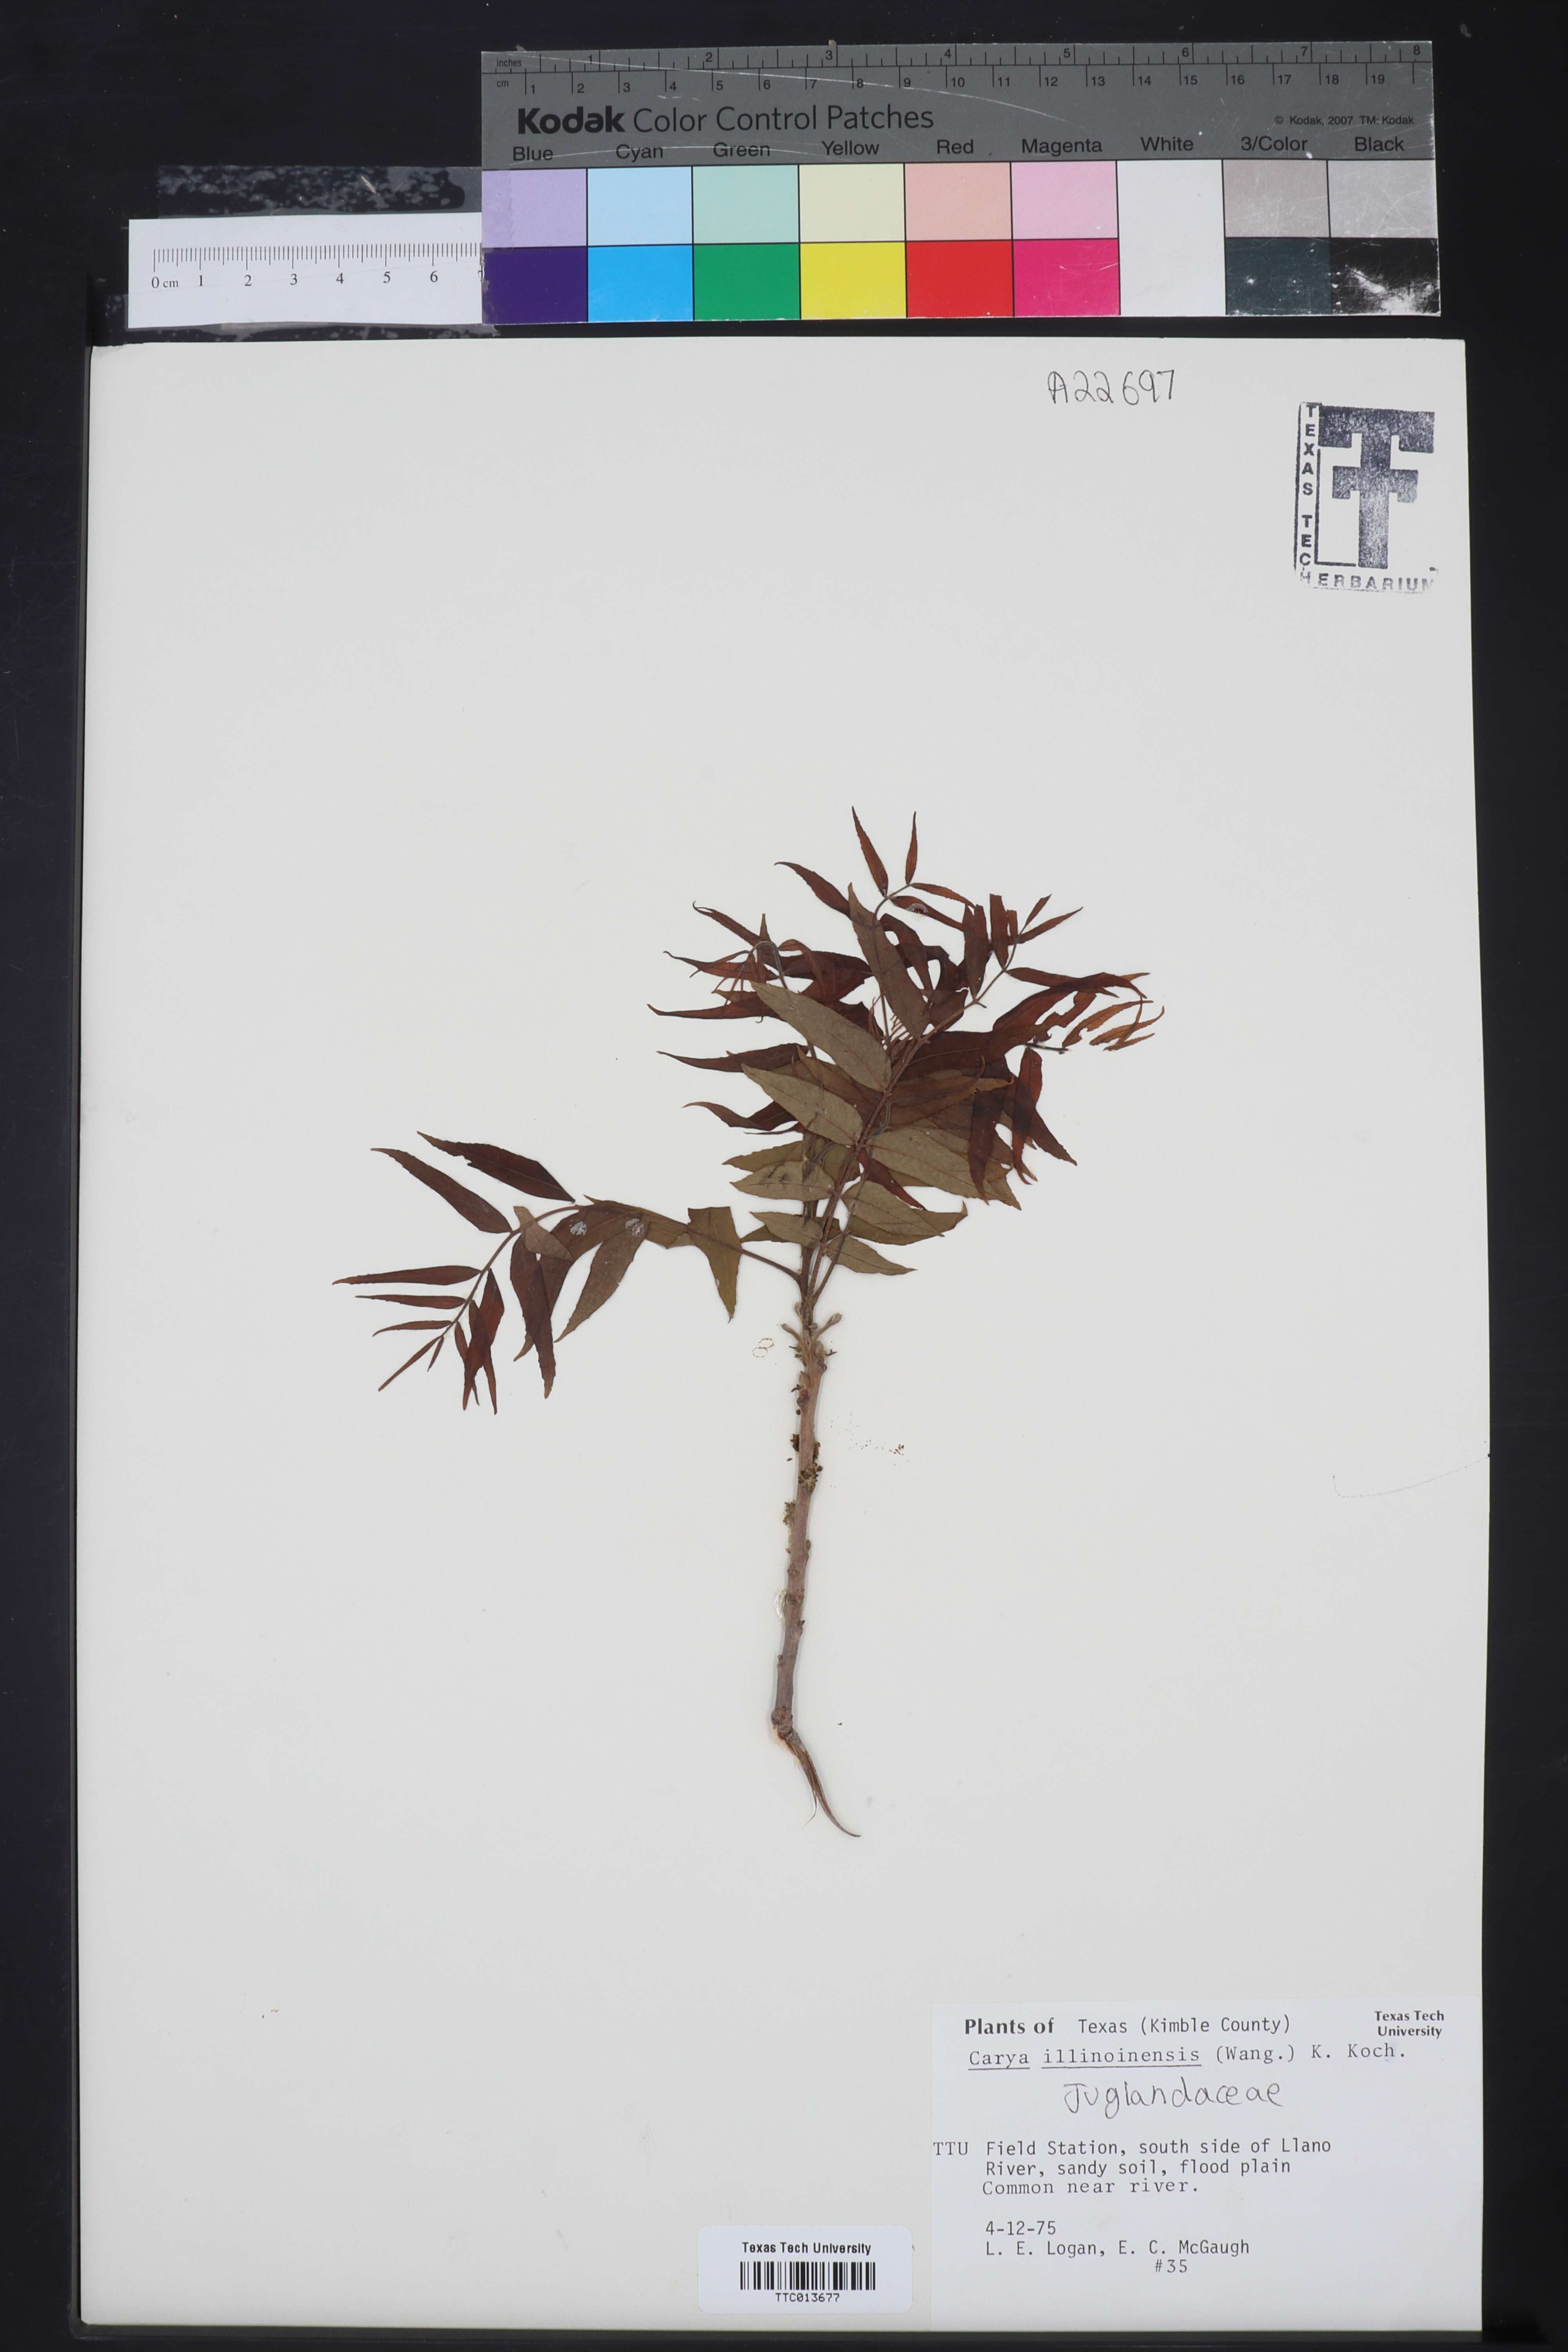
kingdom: Plantae
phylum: Tracheophyta
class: Magnoliopsida
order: Fagales
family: Juglandaceae
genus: Carya
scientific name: Carya
